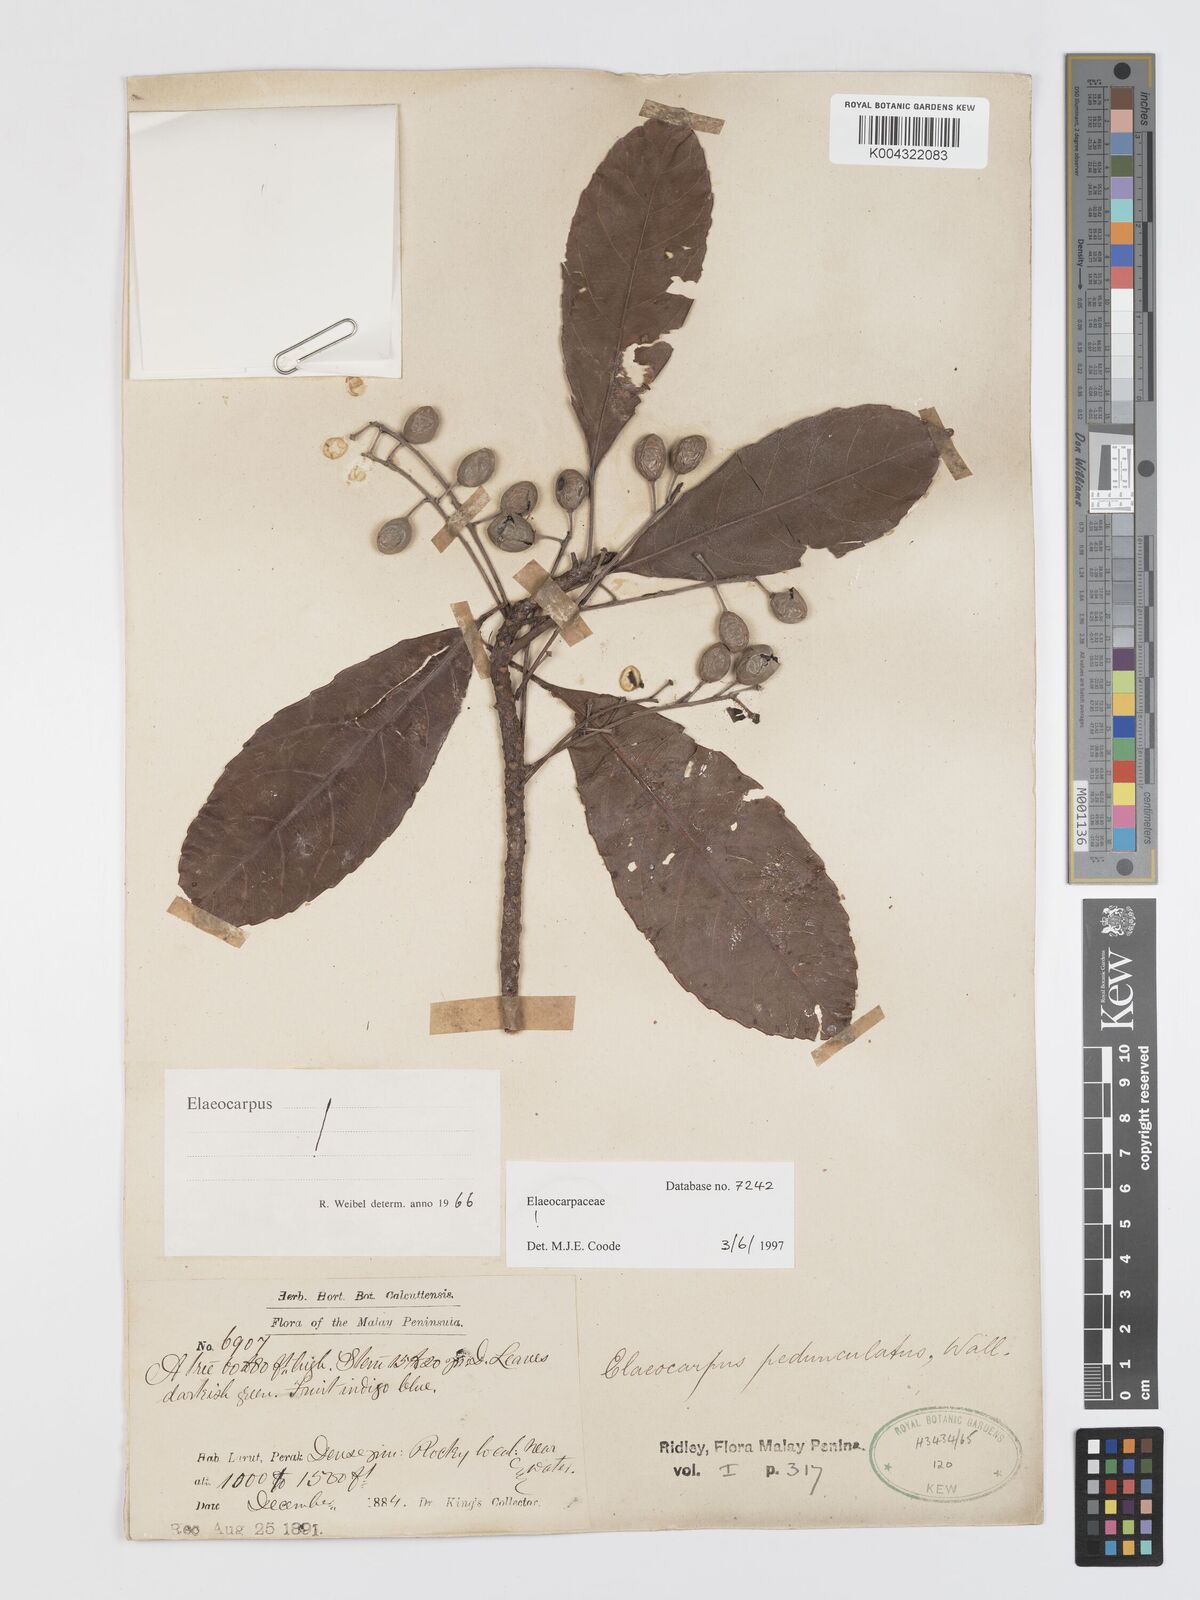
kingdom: Plantae
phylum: Tracheophyta
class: Magnoliopsida
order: Oxalidales
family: Elaeocarpaceae
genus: Elaeocarpus
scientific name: Elaeocarpus pedunculatus
